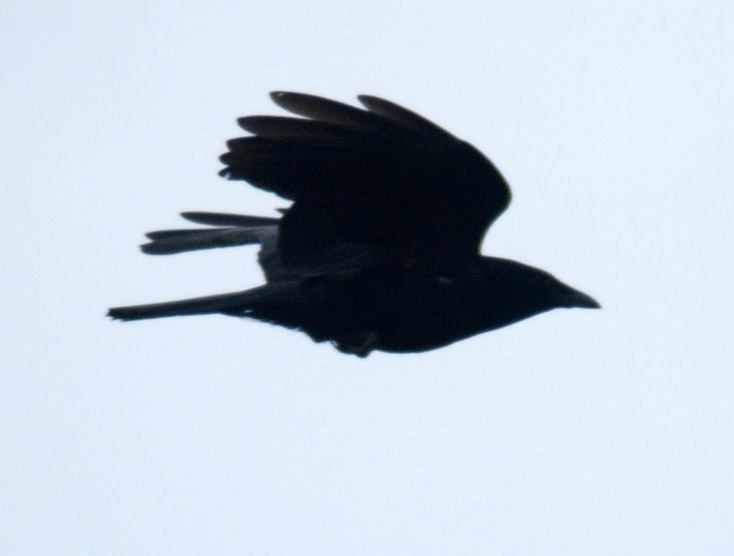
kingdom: Animalia
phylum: Chordata
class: Aves
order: Passeriformes
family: Corvidae
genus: Corvus
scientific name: Corvus brachyrhynchos
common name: American crow
